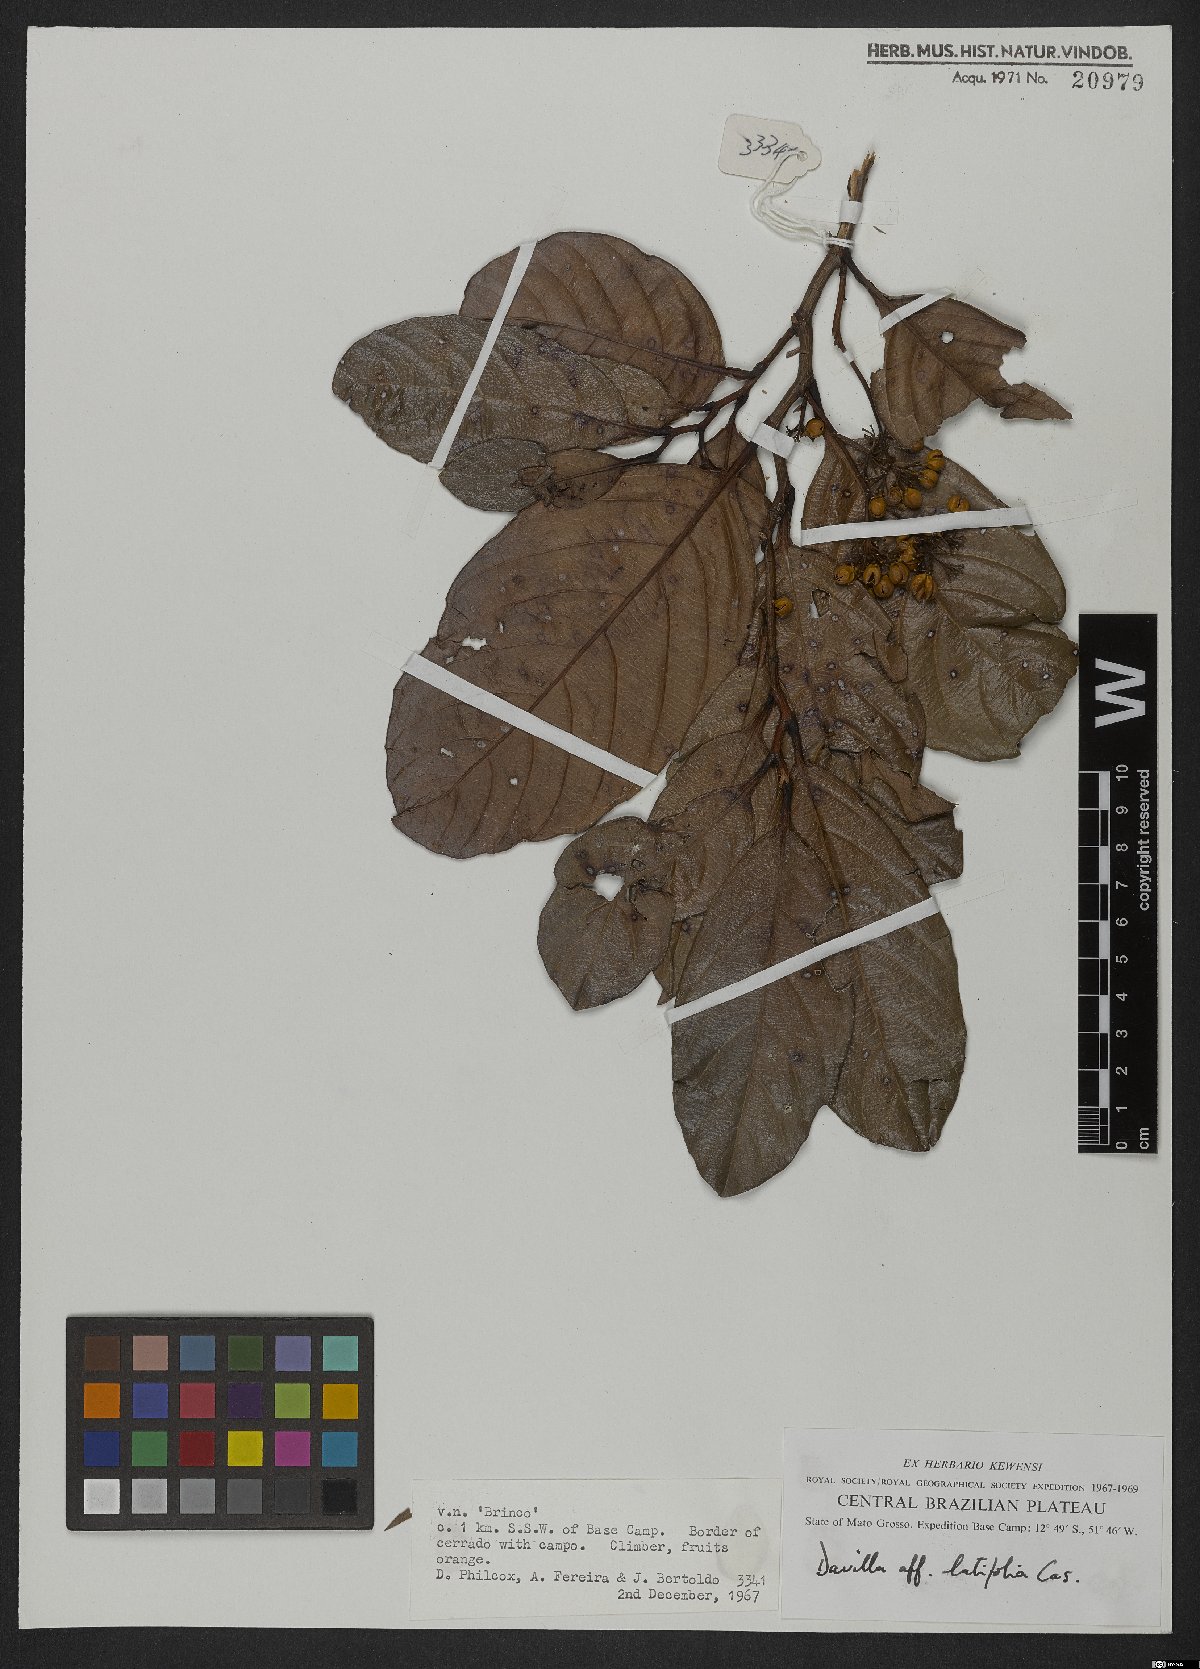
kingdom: Plantae
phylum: Tracheophyta
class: Magnoliopsida
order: Dilleniales
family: Dilleniaceae
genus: Davilla
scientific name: Davilla latifolia
